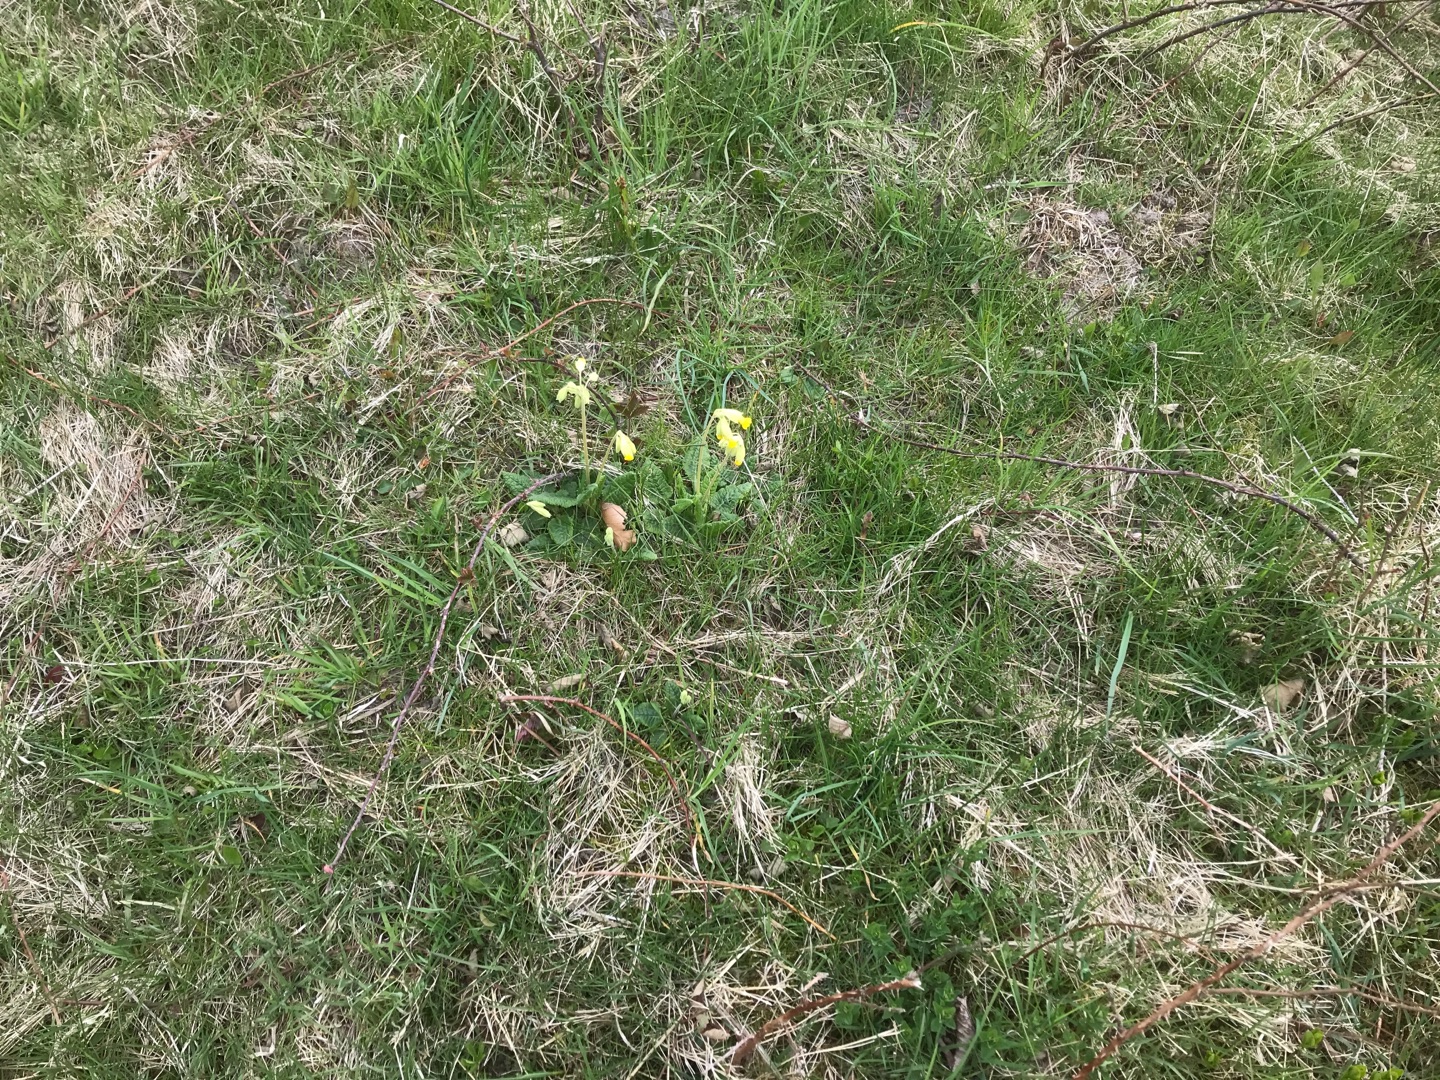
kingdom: Plantae
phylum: Tracheophyta
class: Magnoliopsida
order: Ericales
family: Primulaceae
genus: Primula
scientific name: Primula veris
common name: Hulkravet kodriver
